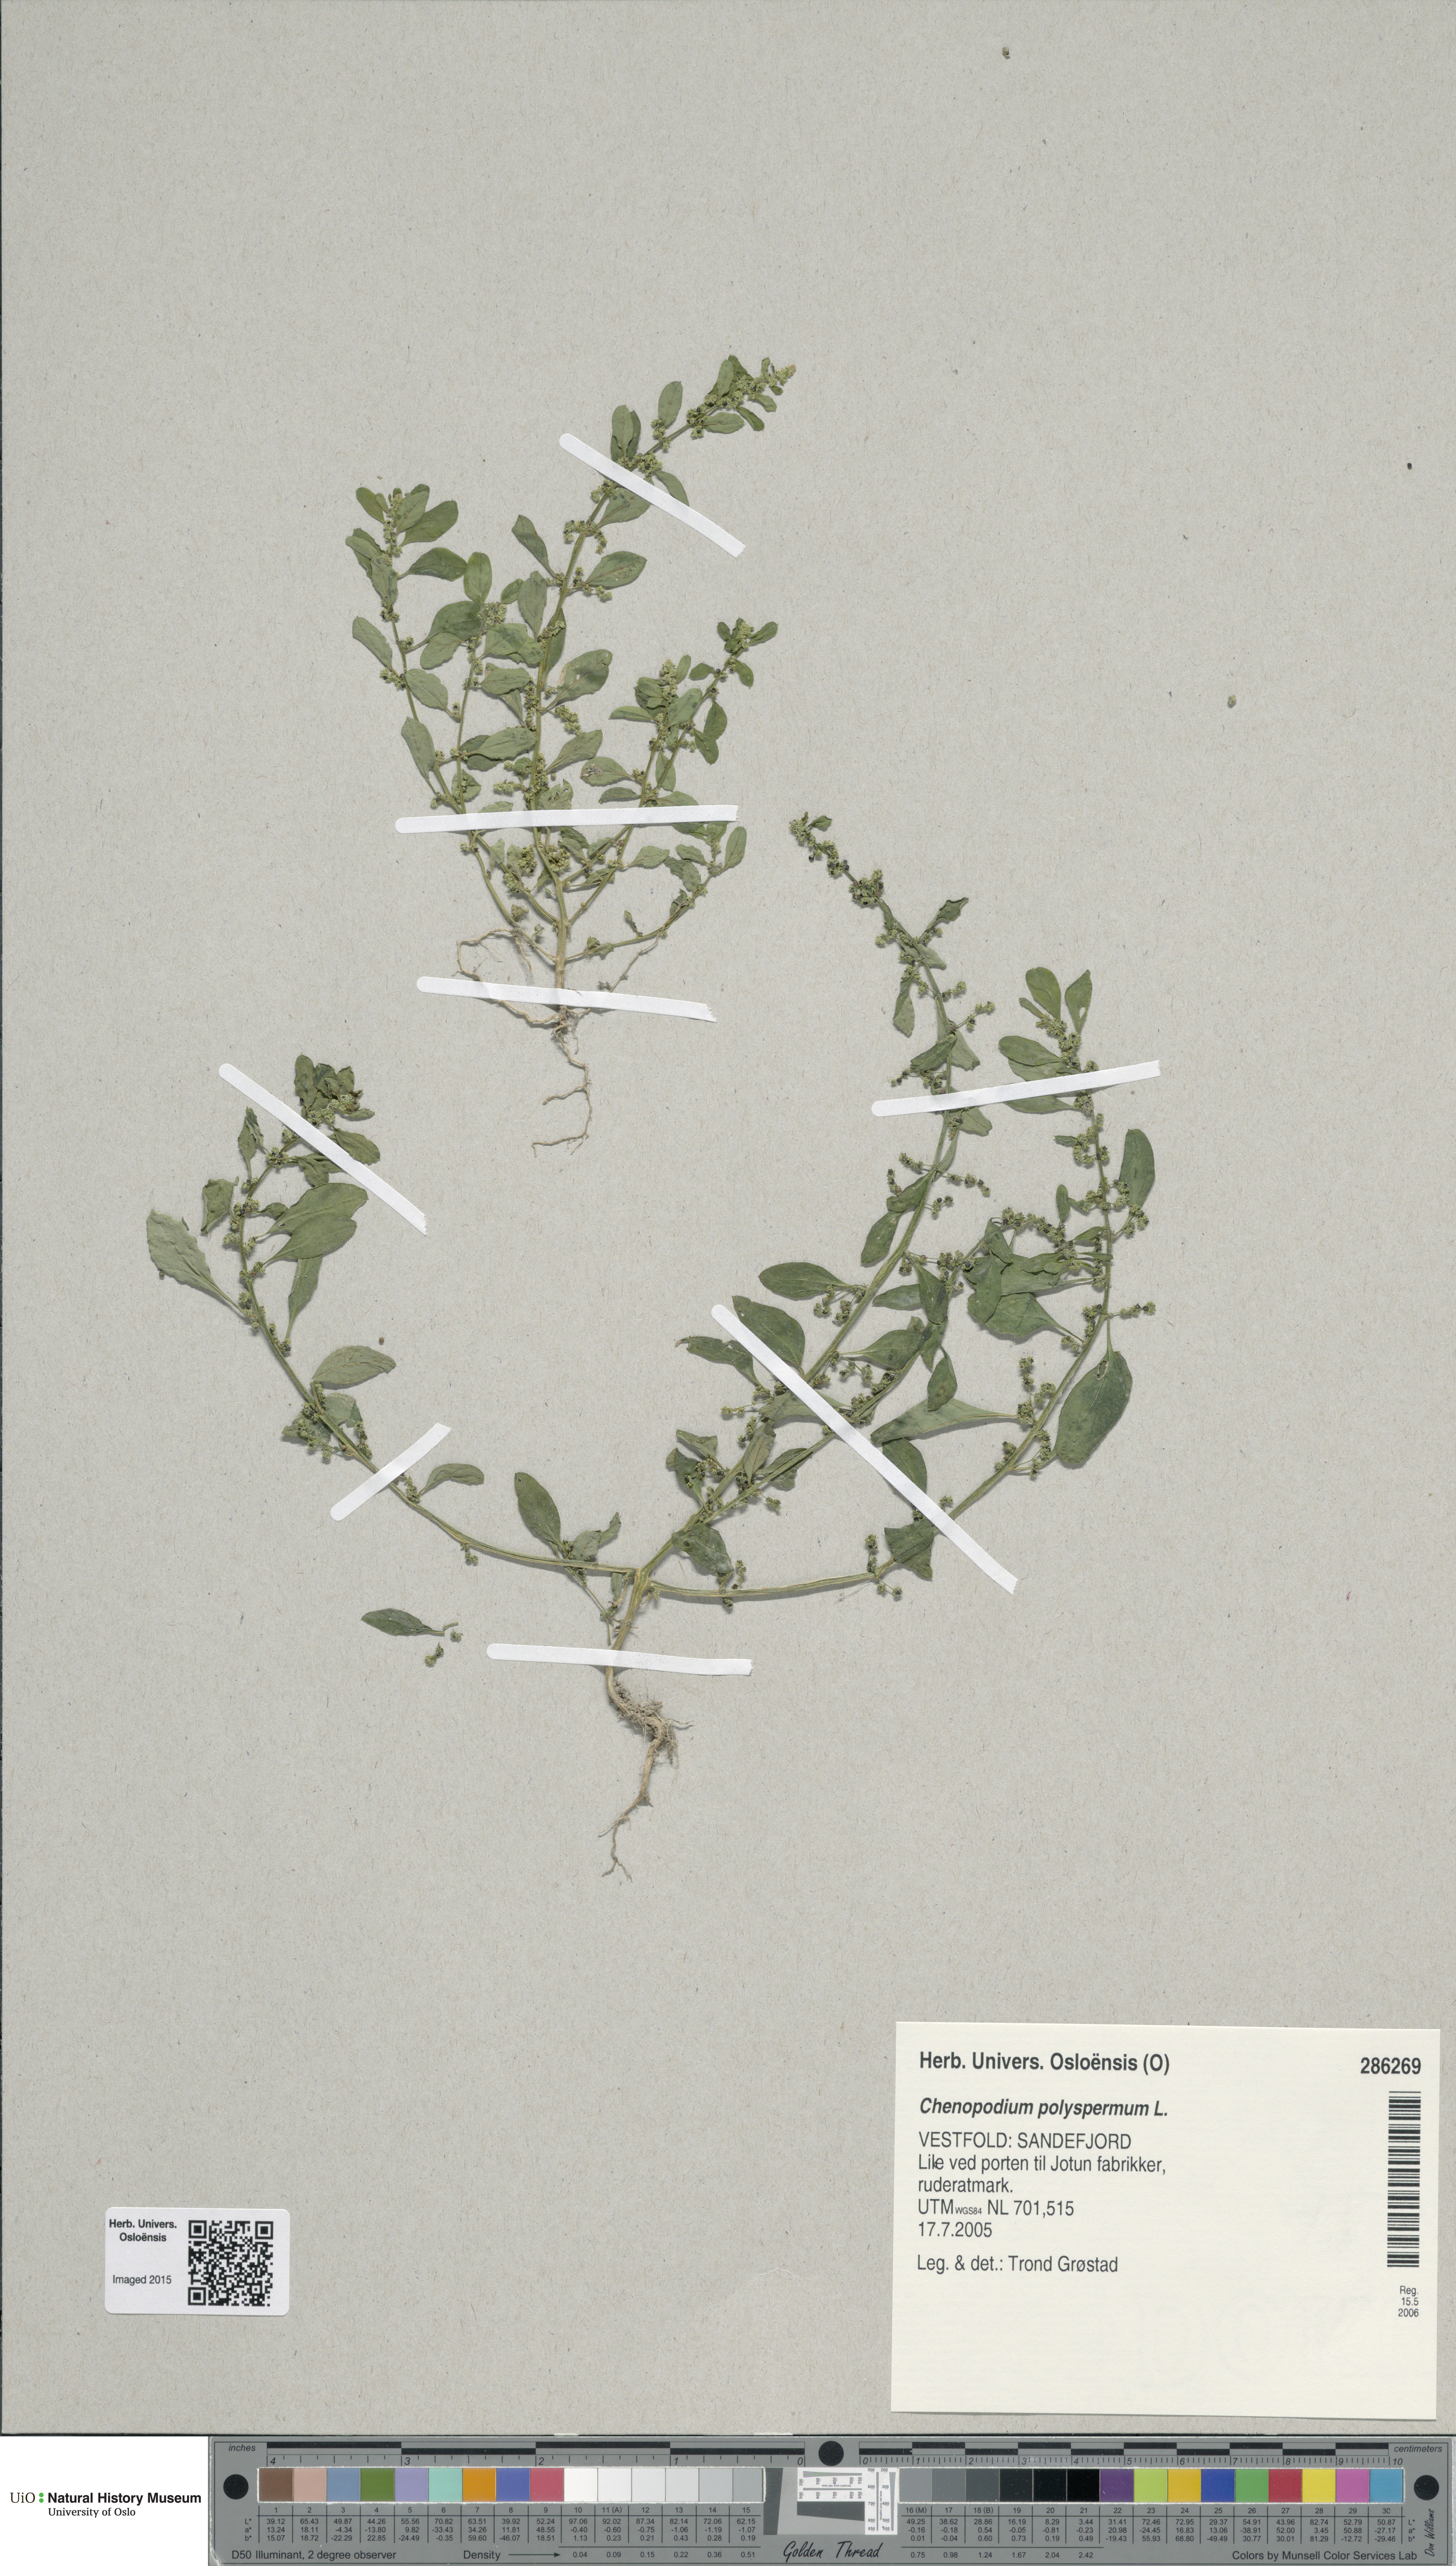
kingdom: Plantae
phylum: Tracheophyta
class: Magnoliopsida
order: Caryophyllales
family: Amaranthaceae
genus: Lipandra
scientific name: Lipandra polysperma
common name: Many-seed goosefoot
